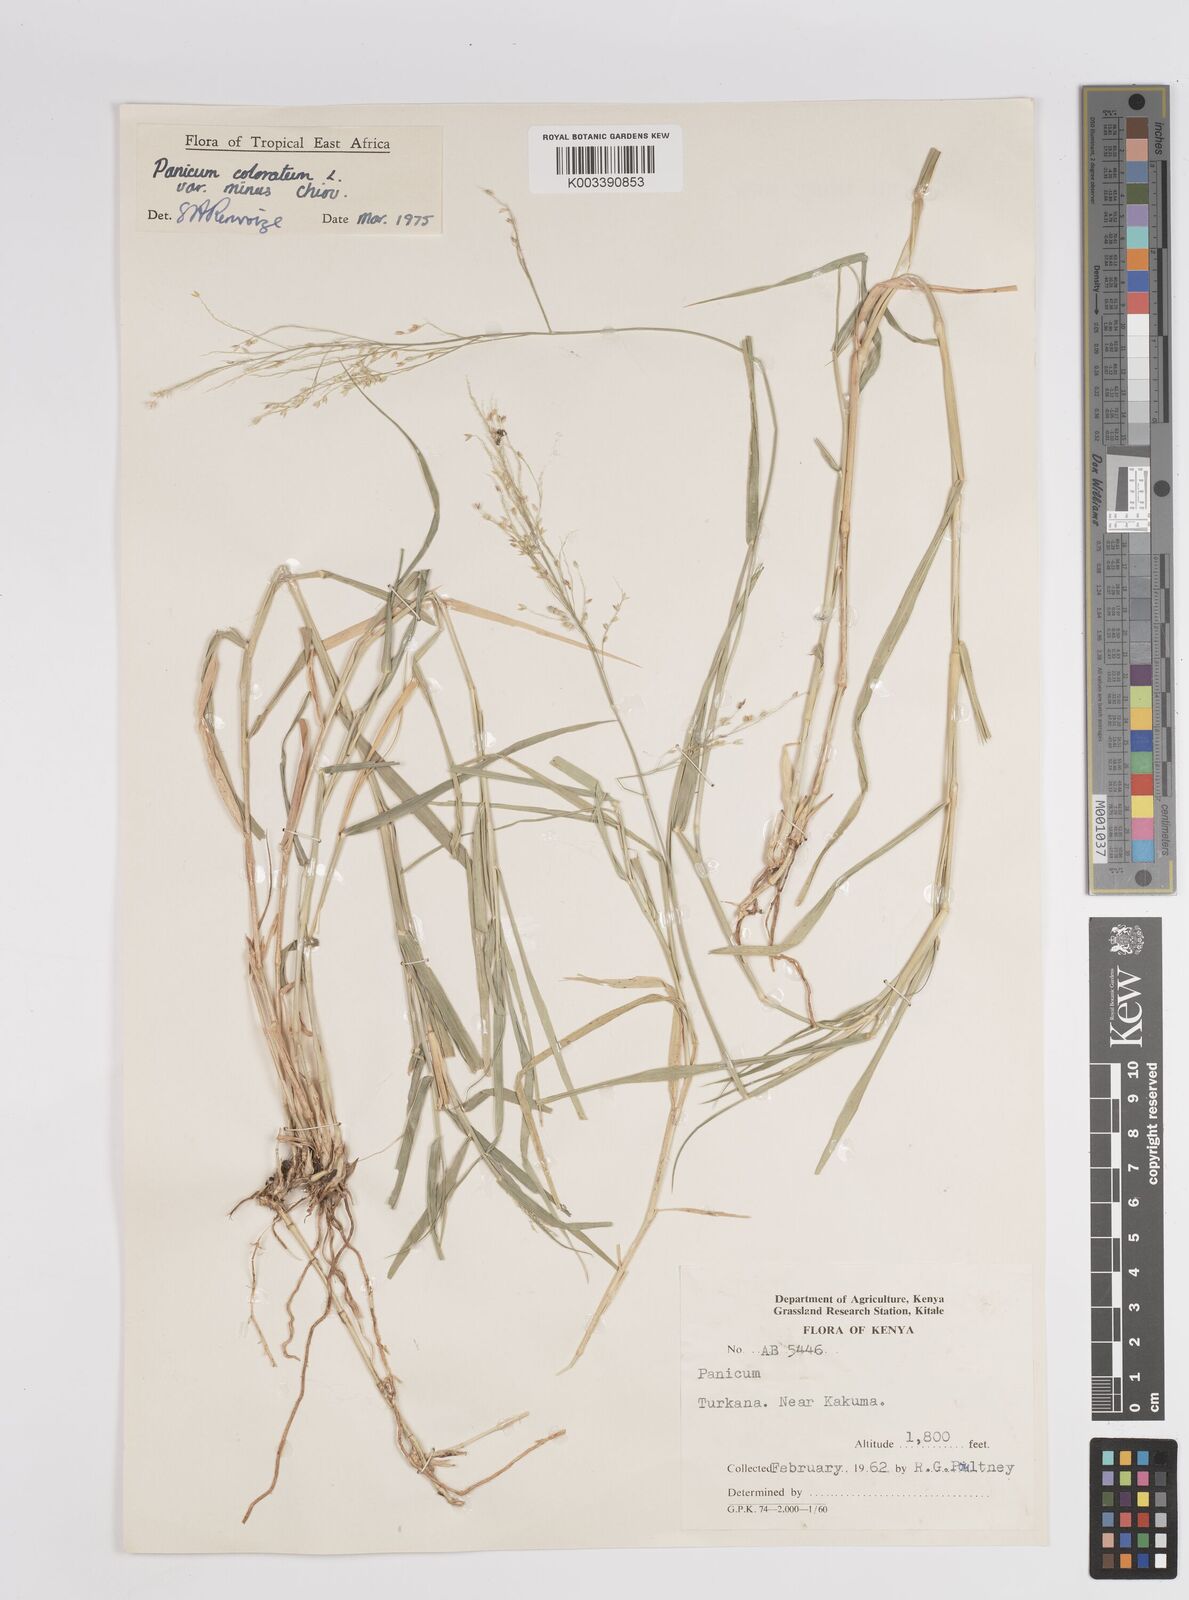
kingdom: Plantae
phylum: Tracheophyta
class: Liliopsida
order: Poales
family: Poaceae
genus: Panicum
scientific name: Panicum coloratum
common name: Kleingrass
